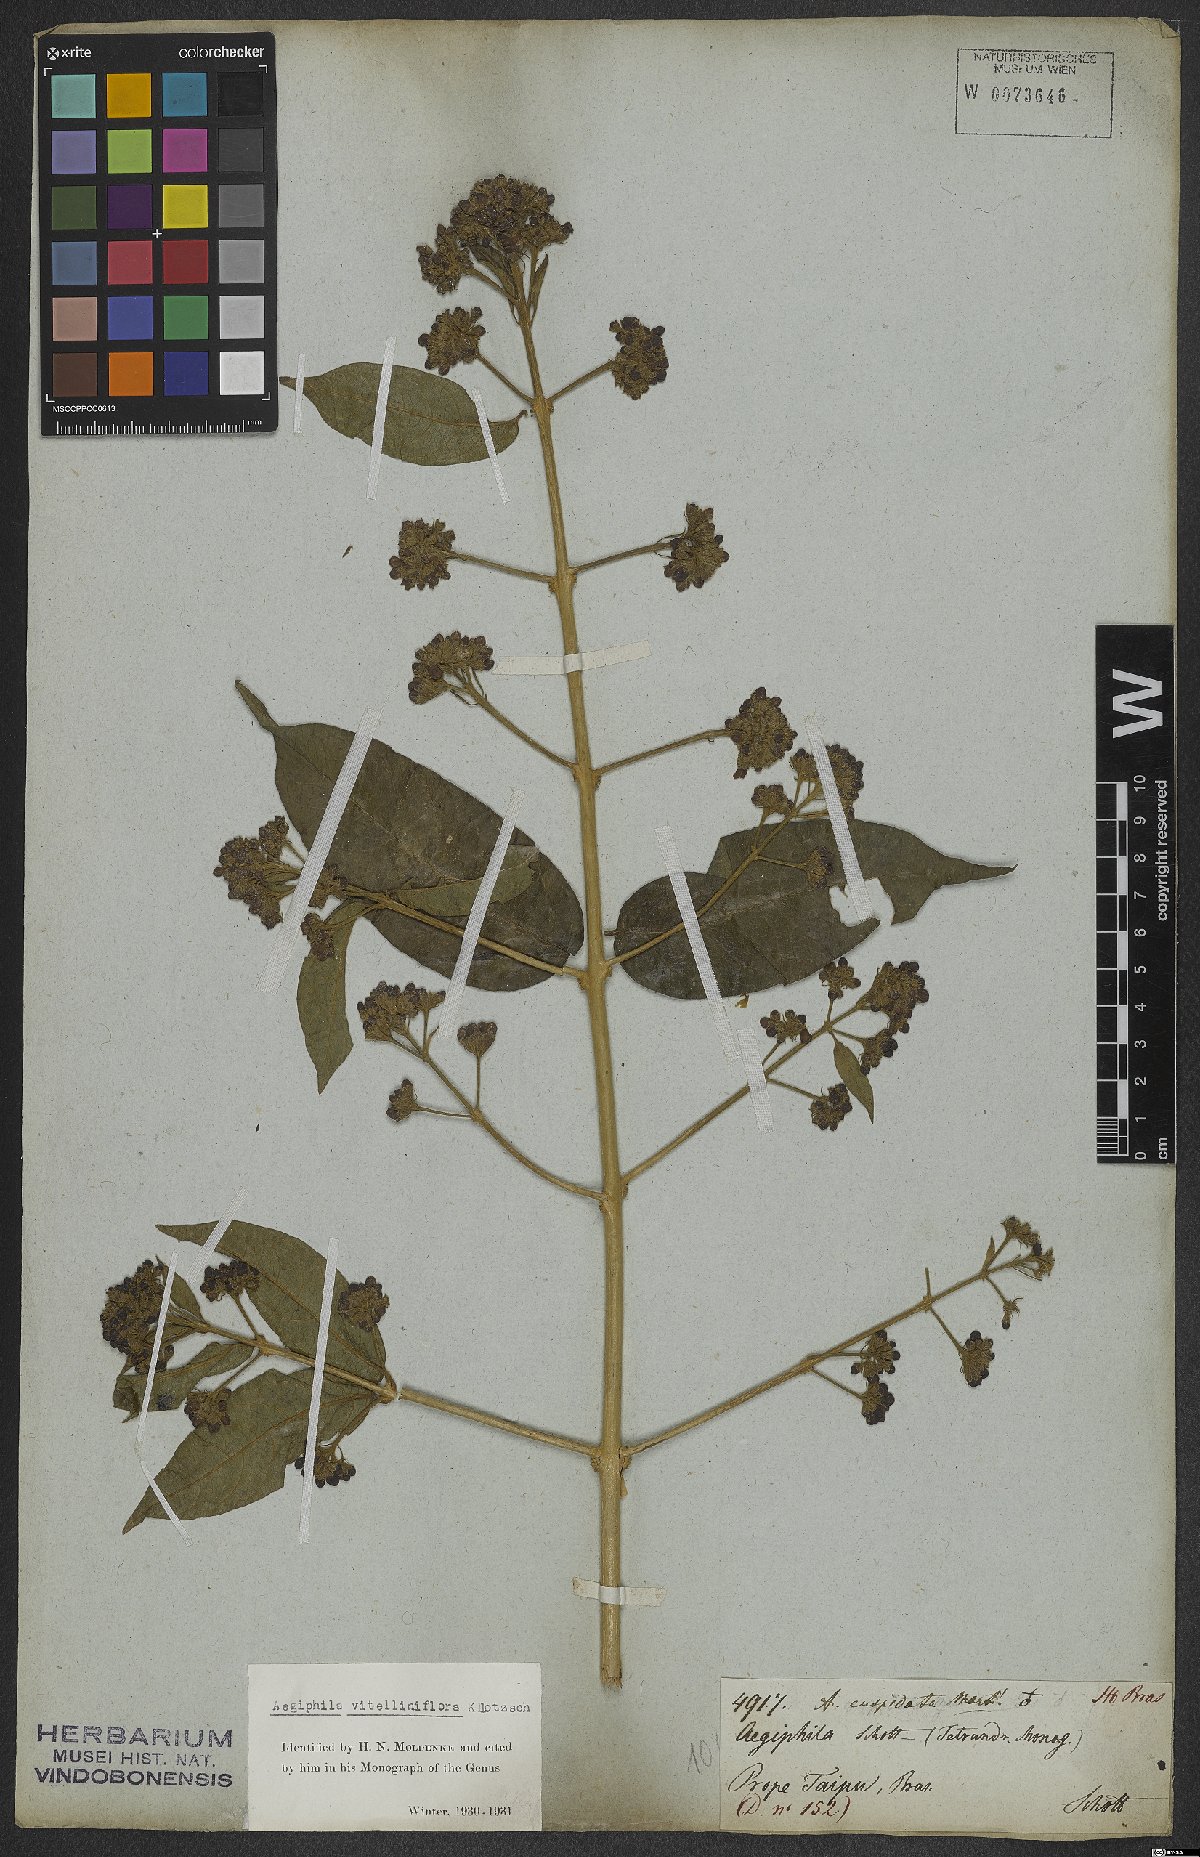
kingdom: Plantae
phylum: Tracheophyta
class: Magnoliopsida
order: Lamiales
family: Lamiaceae
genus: Aegiphila
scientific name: Aegiphila vitelliniflora
